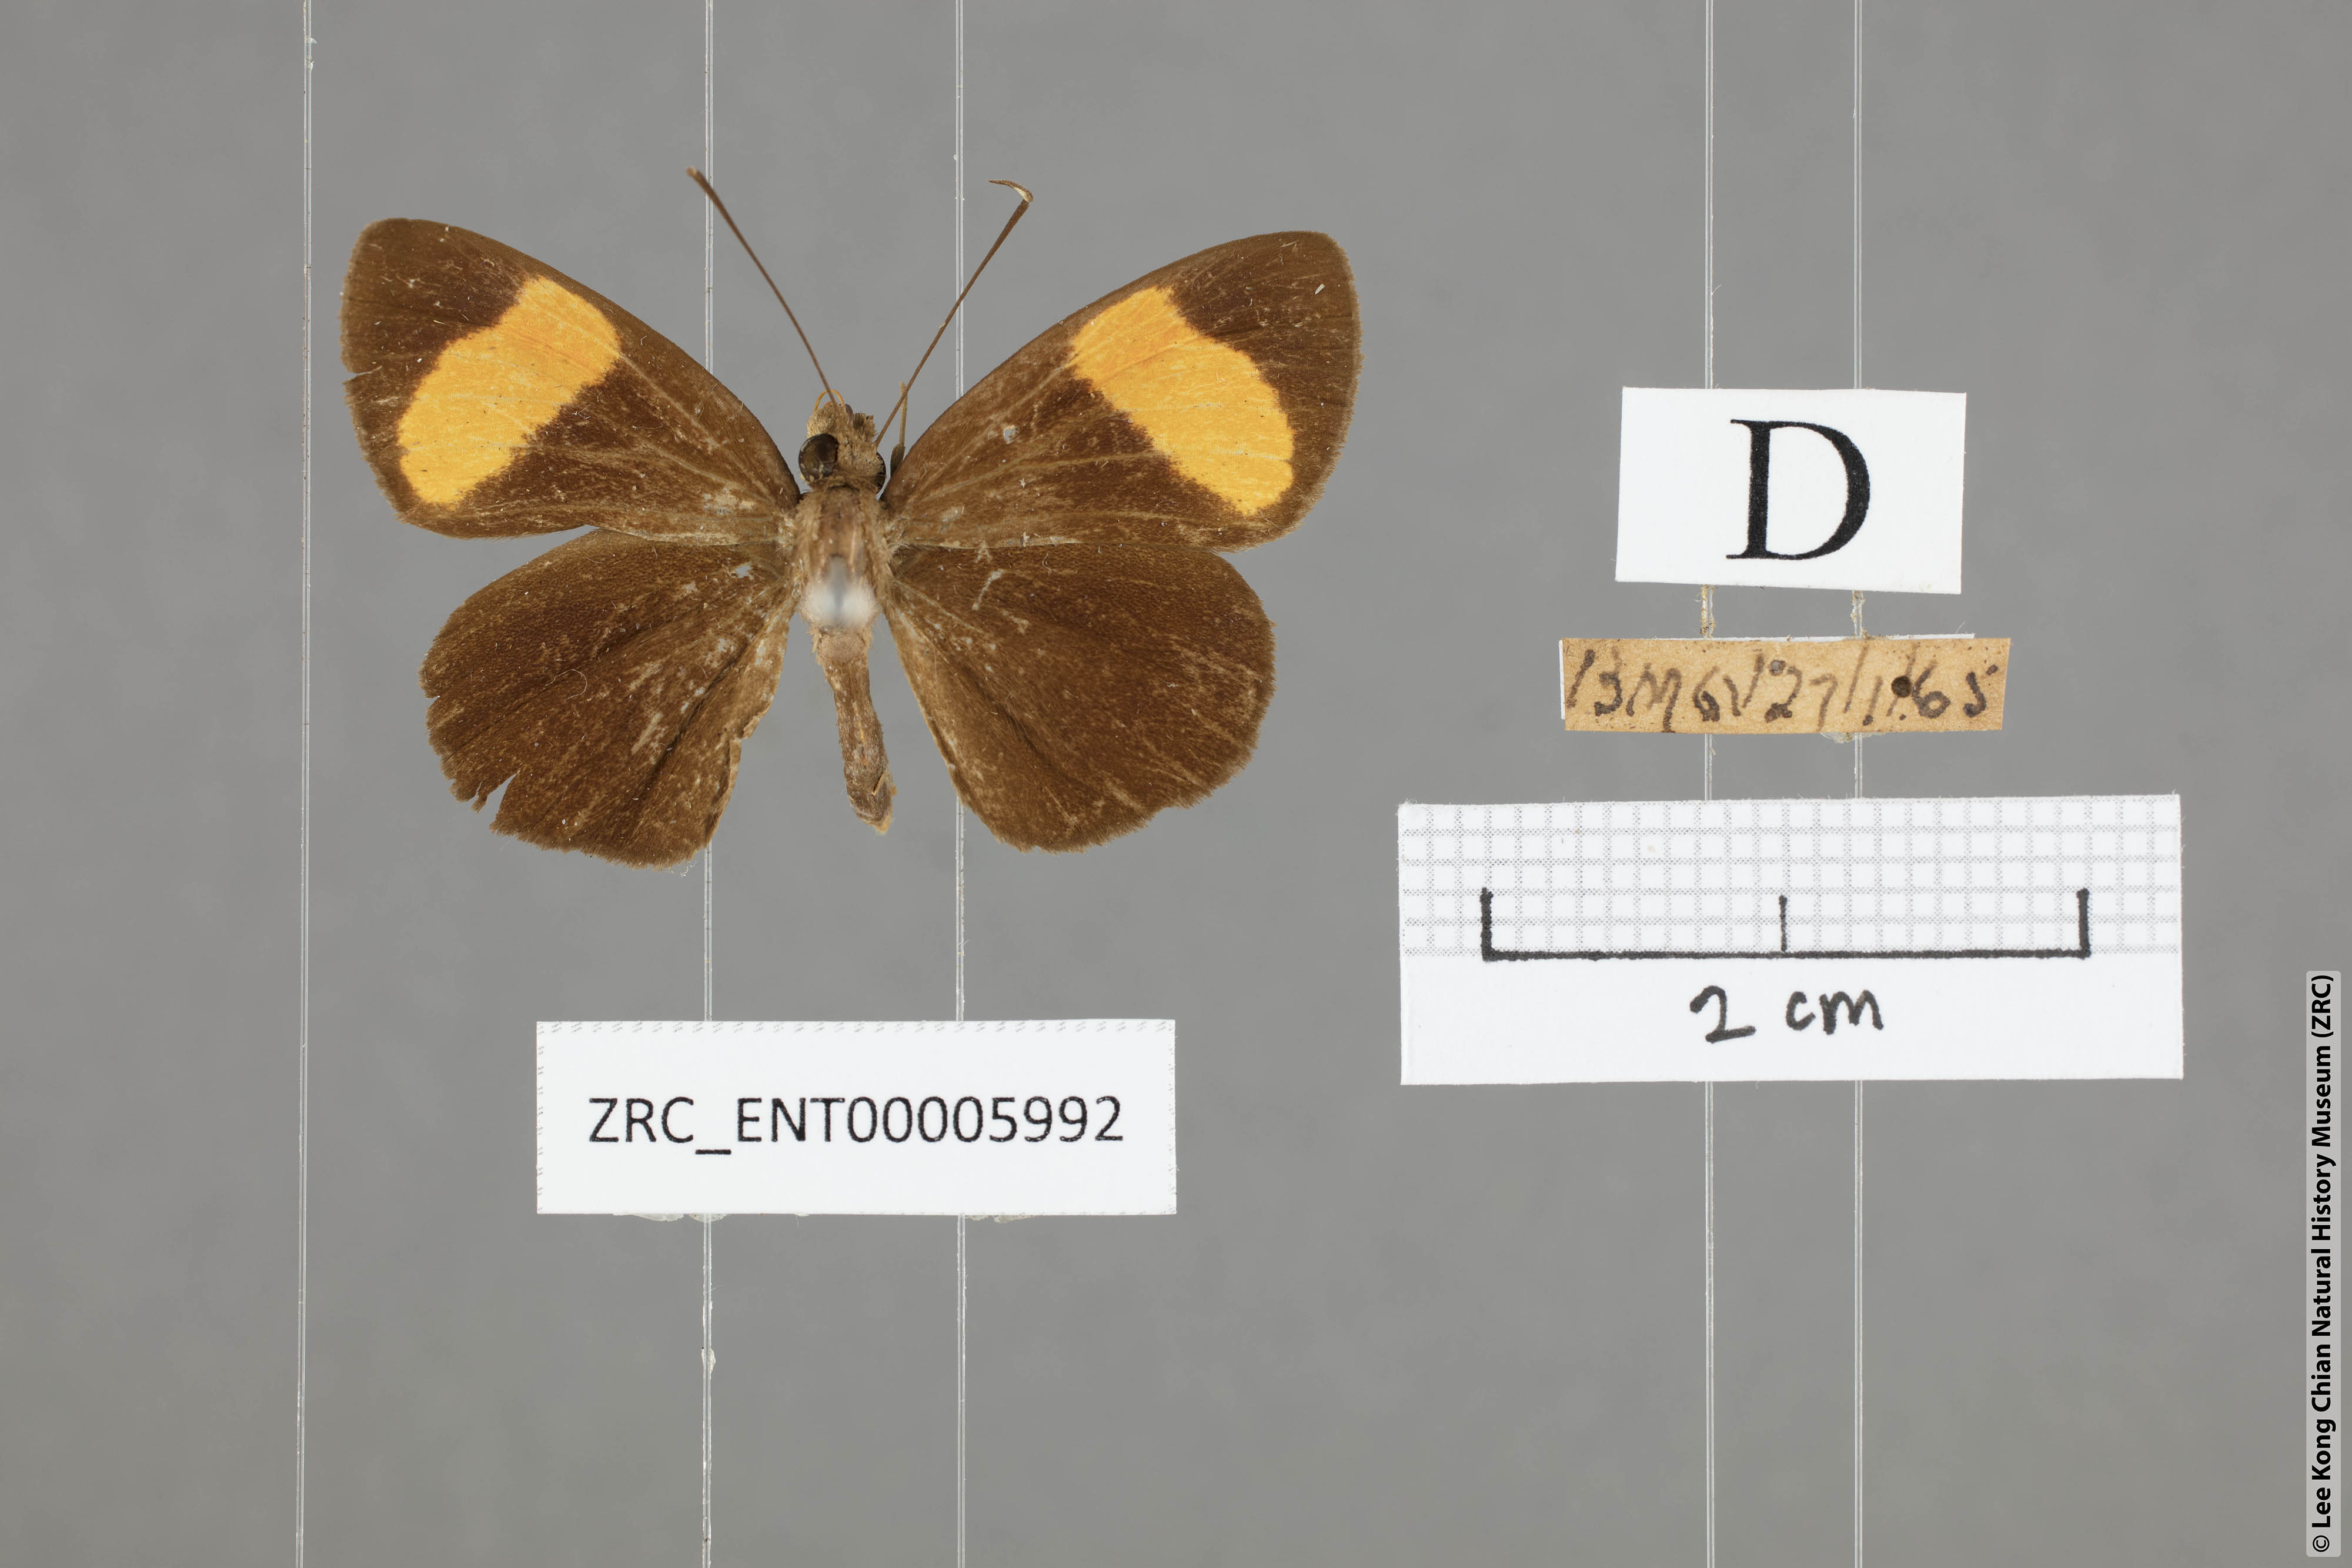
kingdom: Animalia
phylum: Arthropoda
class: Insecta
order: Lepidoptera
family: Hesperiidae
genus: Ancistroides
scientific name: Ancistroides gemmifer
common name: Gem demon
